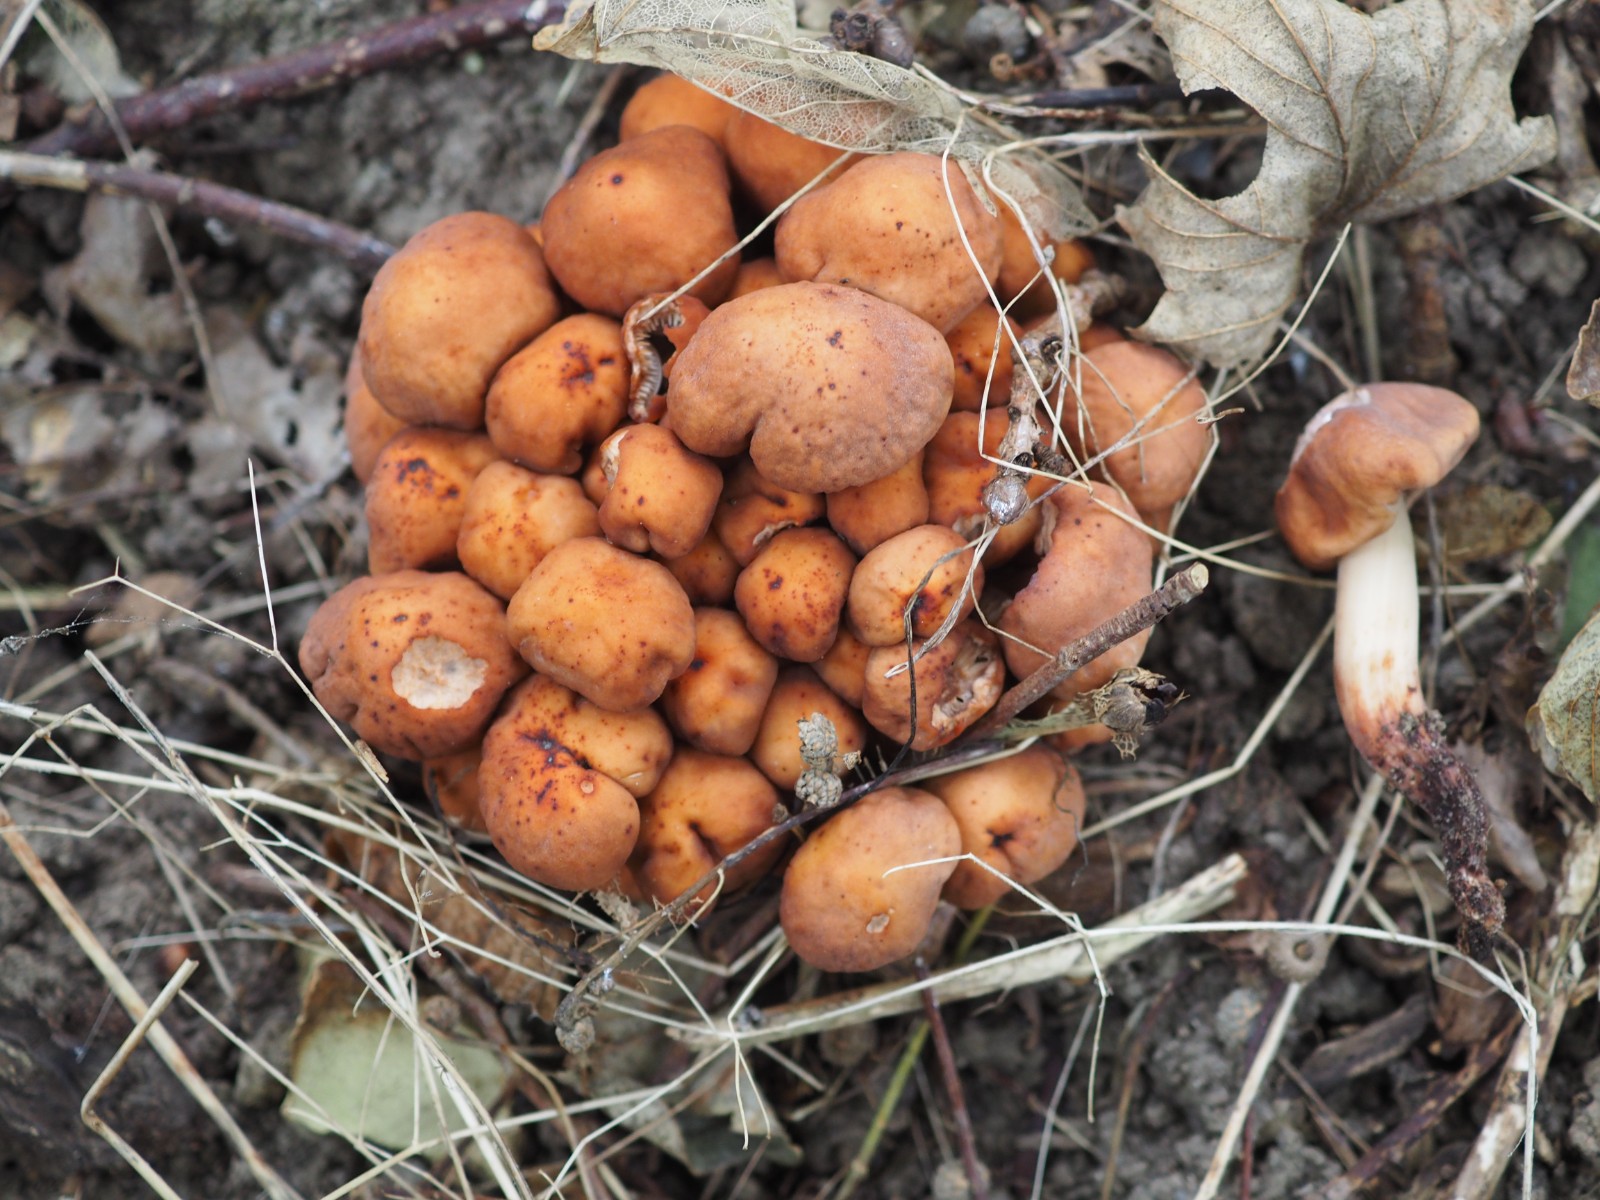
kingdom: Fungi
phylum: Basidiomycota
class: Agaricomycetes
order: Agaricales
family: Omphalotaceae
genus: Gymnopus
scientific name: Gymnopus fusipes
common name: tenstokket fladhat
